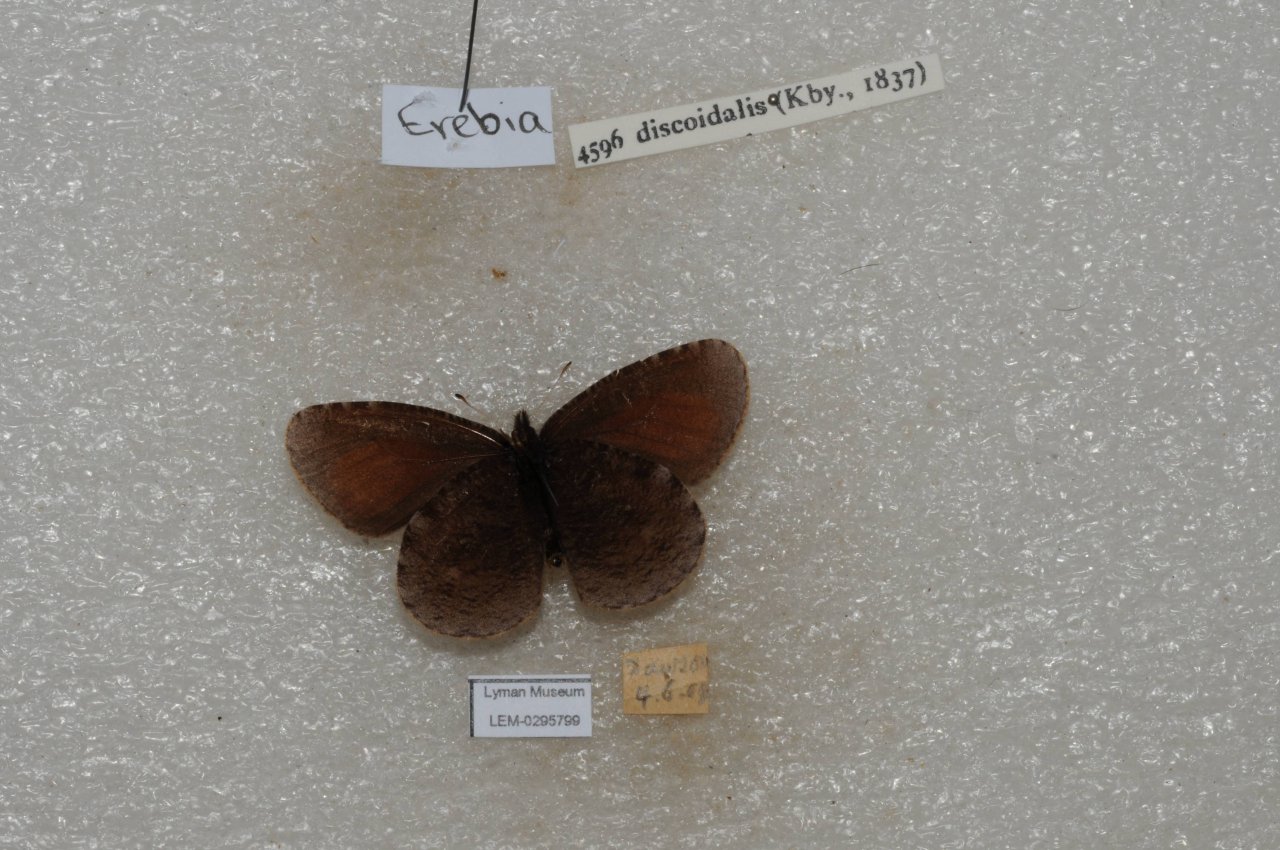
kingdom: Animalia
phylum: Arthropoda
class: Insecta
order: Lepidoptera
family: Nymphalidae
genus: Erebia
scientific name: Erebia discoidalis
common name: Red-disked Alpine
